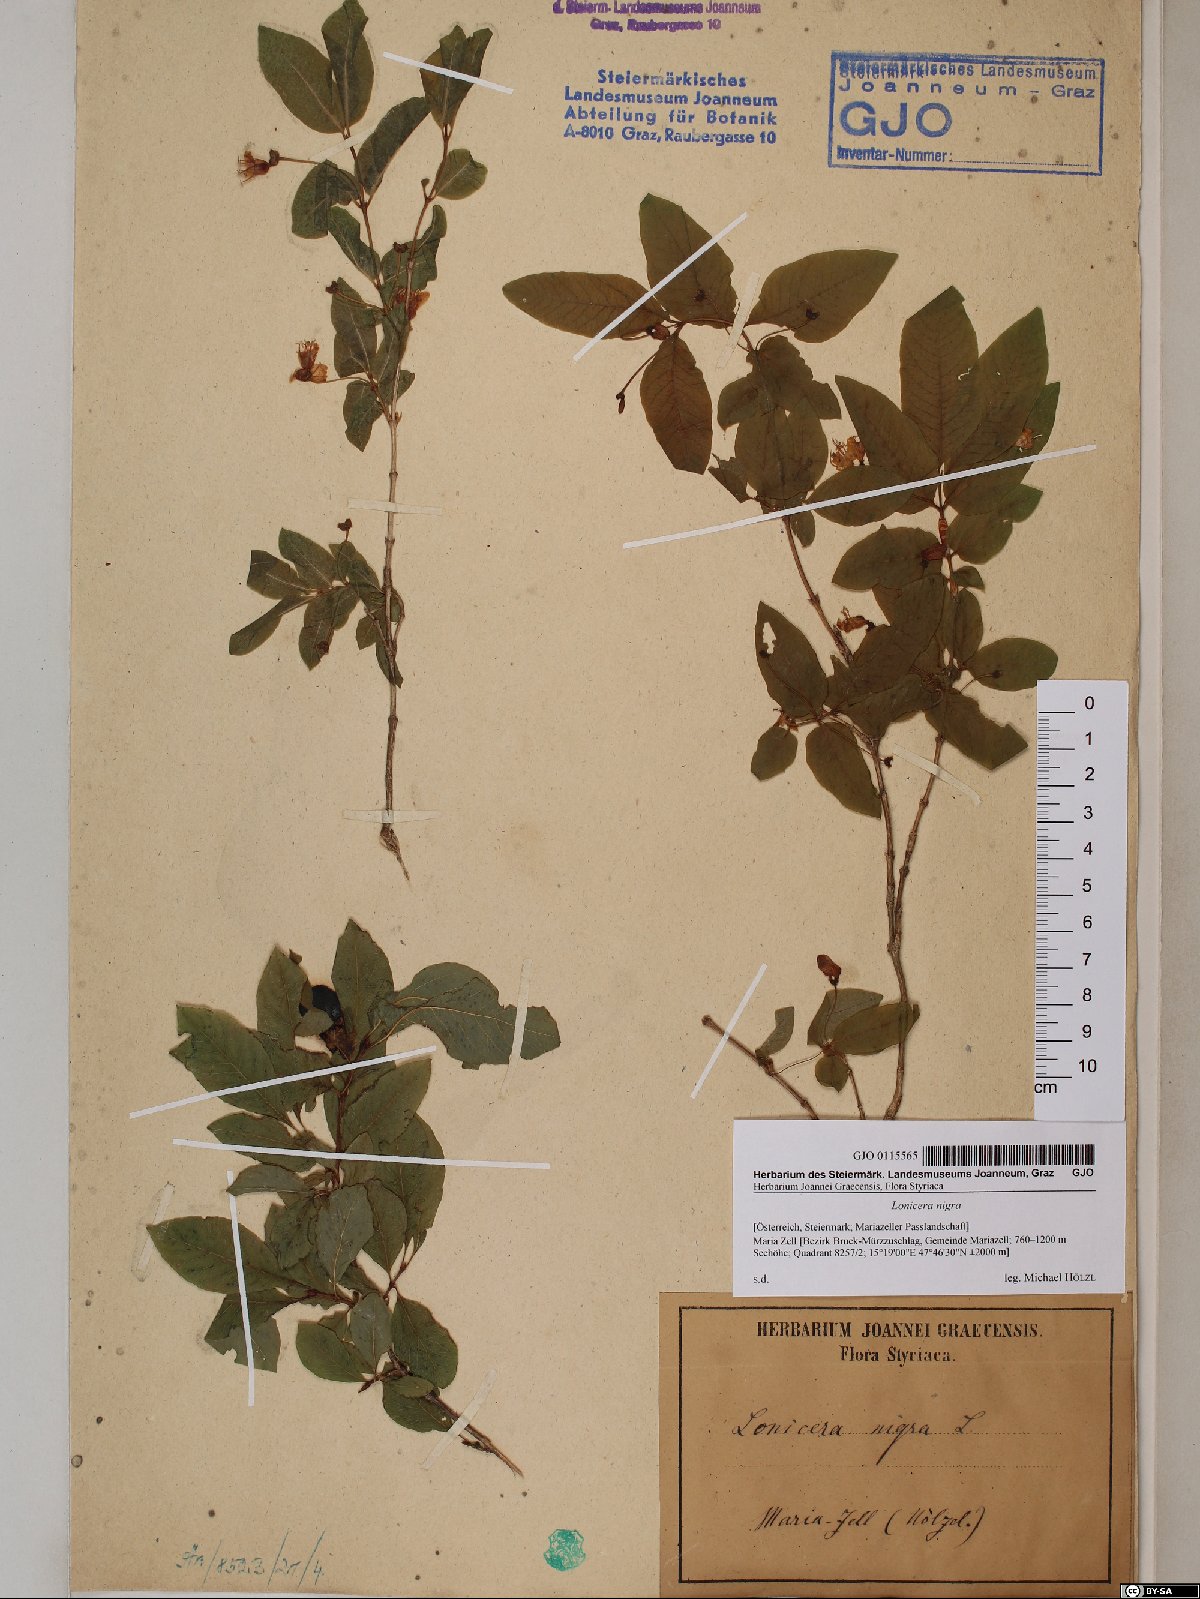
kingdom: Plantae
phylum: Tracheophyta
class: Magnoliopsida
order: Dipsacales
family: Caprifoliaceae
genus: Lonicera
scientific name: Lonicera nigra
